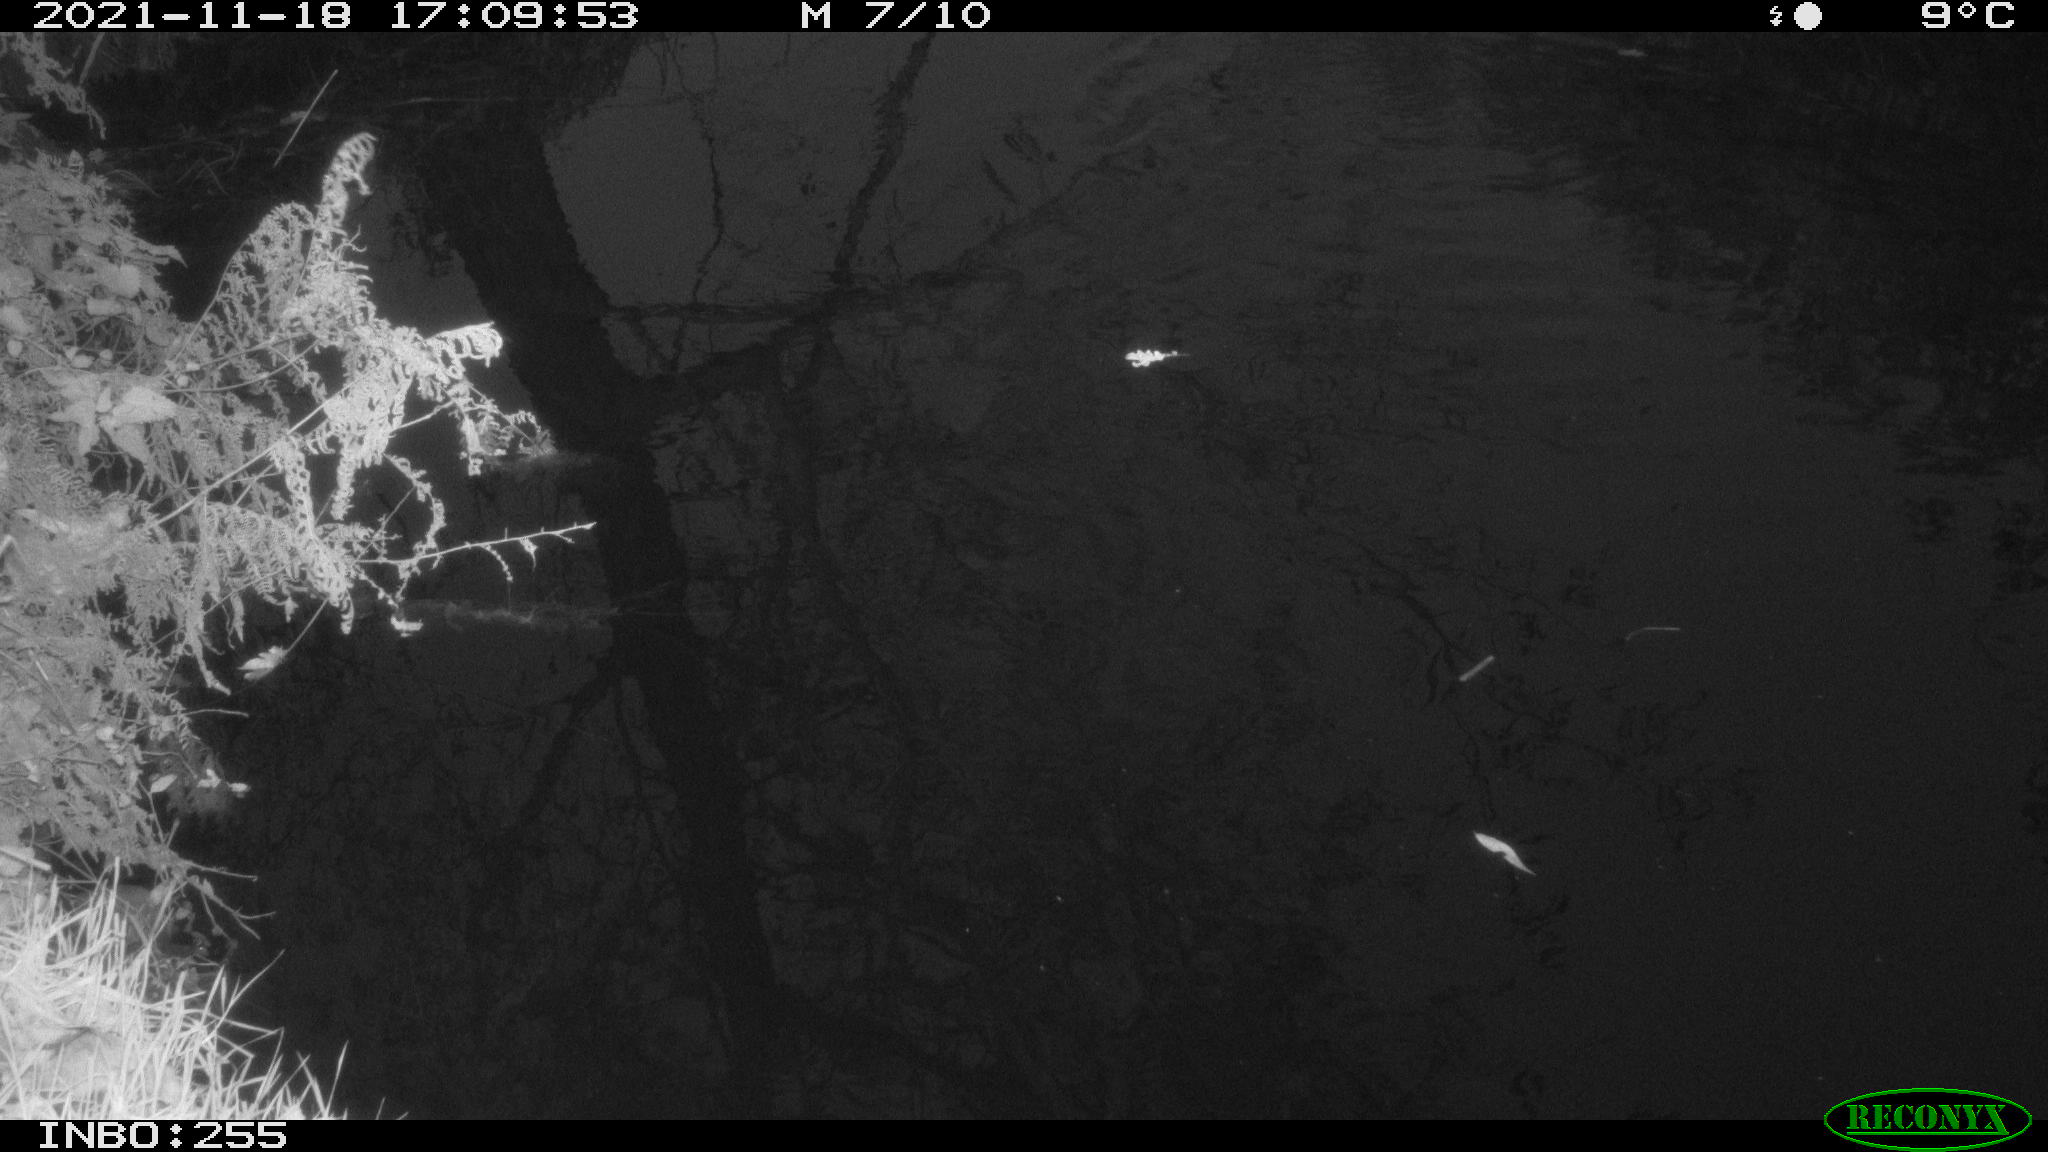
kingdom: Animalia
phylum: Chordata
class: Aves
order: Gruiformes
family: Rallidae
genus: Gallinula
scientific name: Gallinula chloropus
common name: Common moorhen
